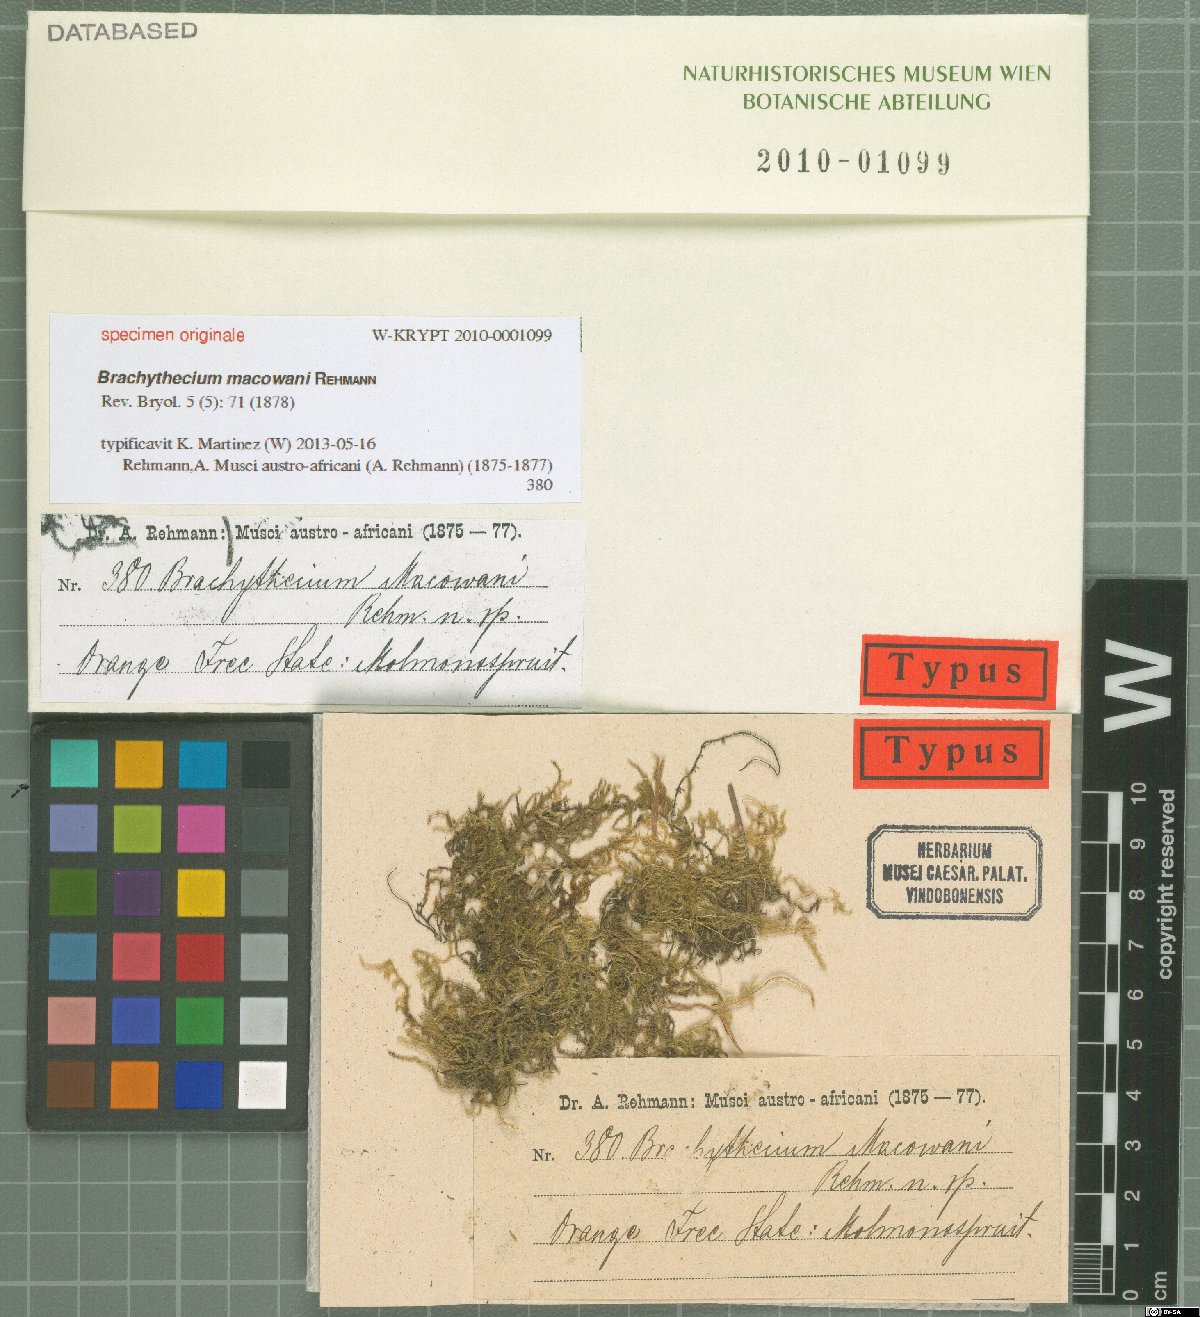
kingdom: Plantae
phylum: Bryophyta
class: Bryopsida
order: Hypnales
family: Brachytheciaceae
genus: Brachythecium
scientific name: Brachythecium
